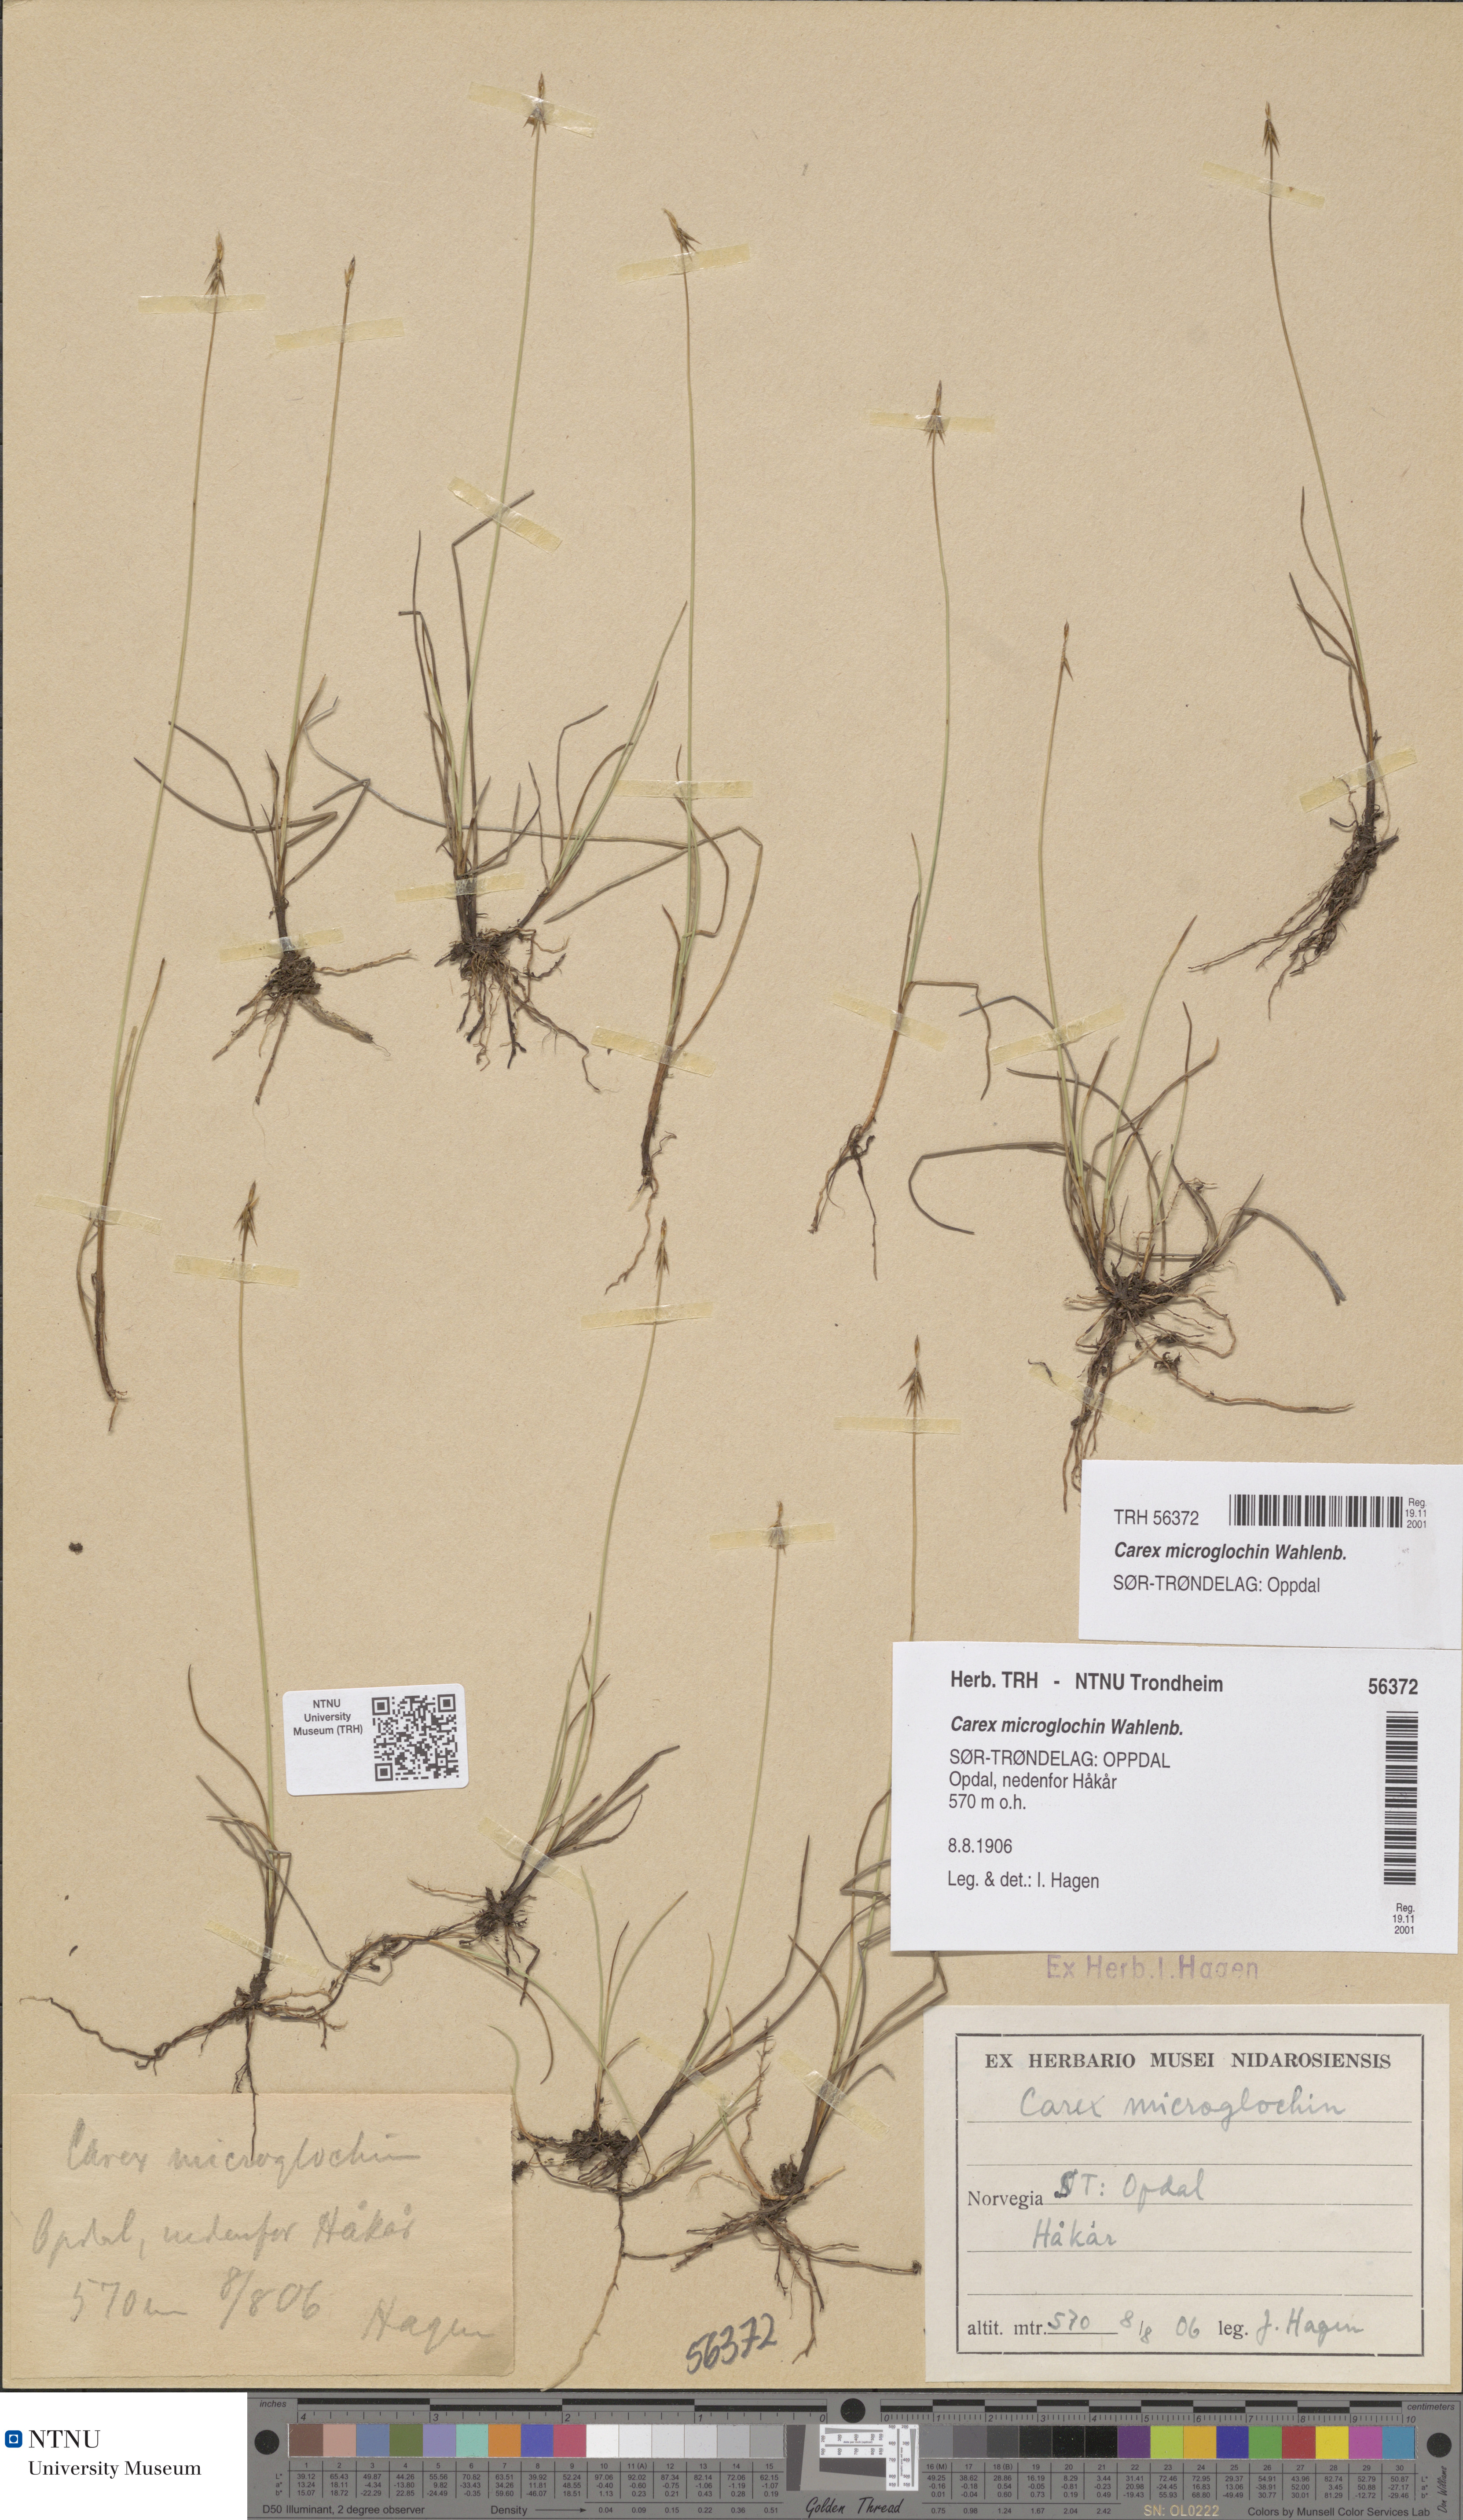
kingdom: Plantae
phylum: Tracheophyta
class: Liliopsida
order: Poales
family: Cyperaceae
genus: Carex
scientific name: Carex microglochin
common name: Bristle sedge
